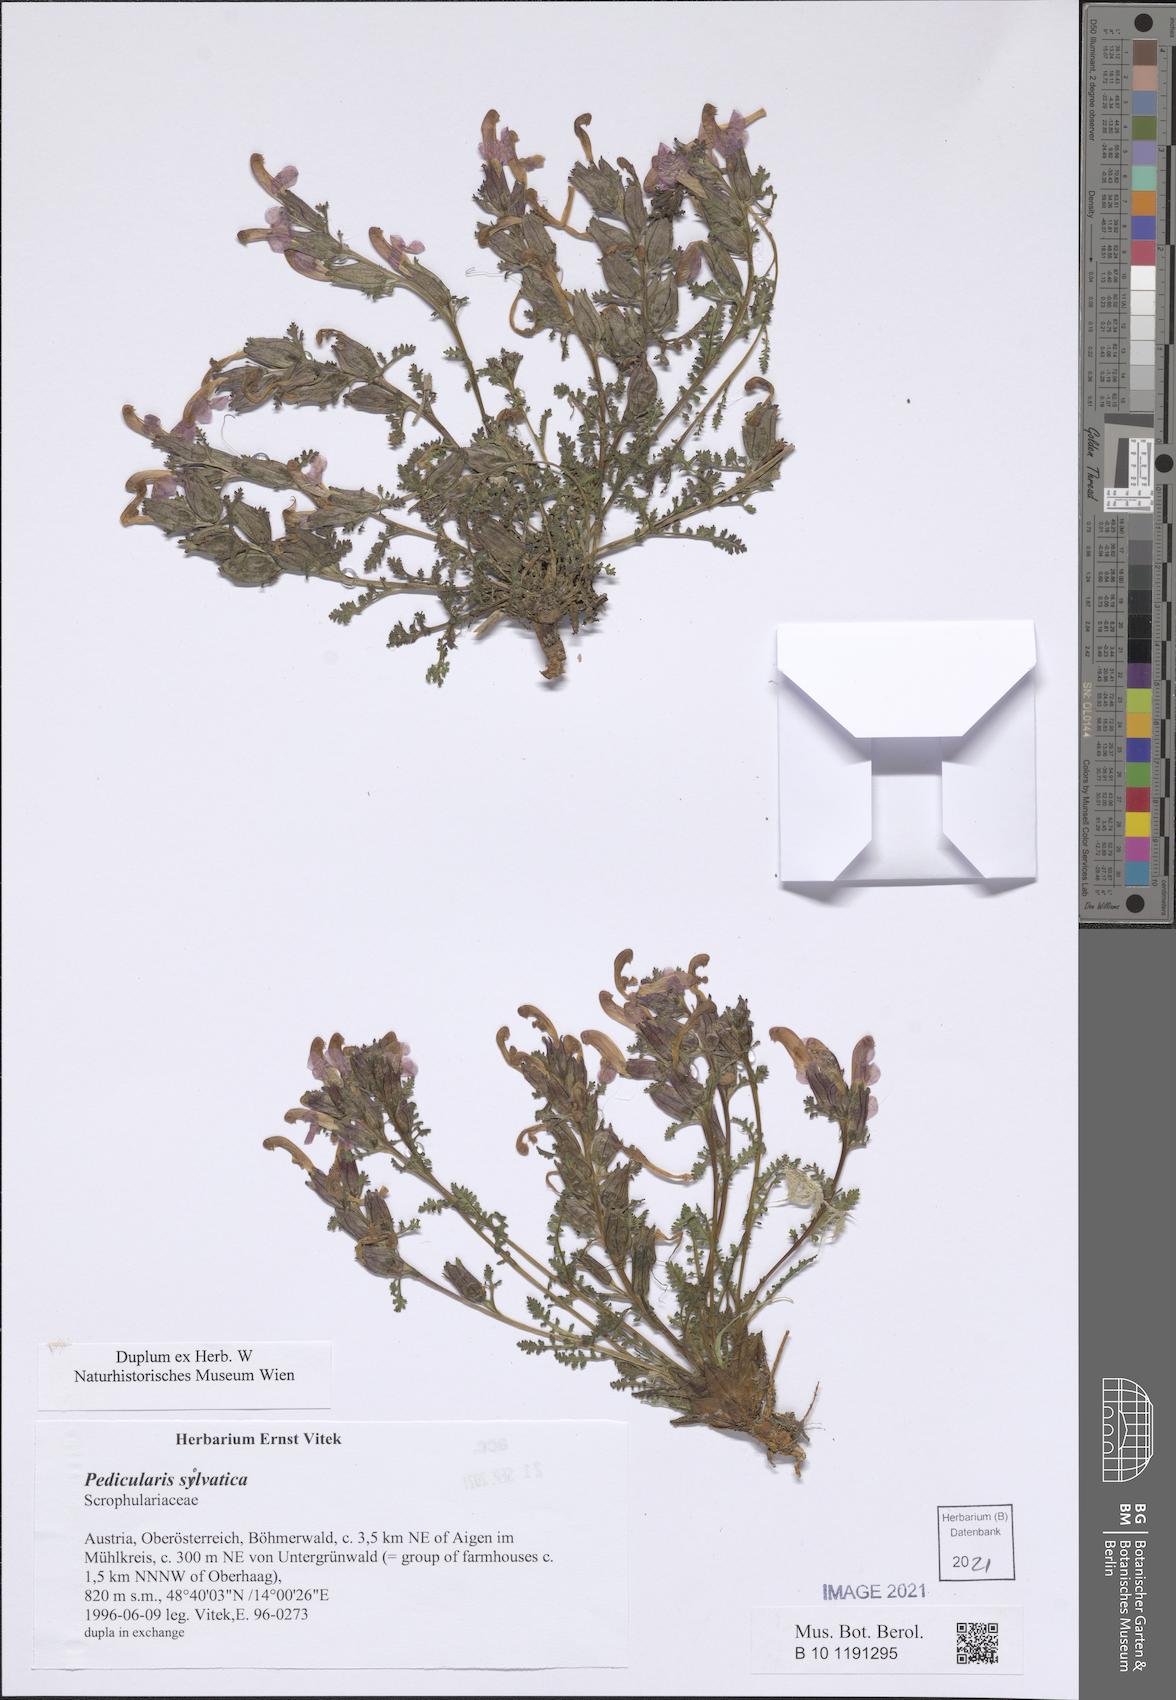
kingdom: Plantae
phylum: Tracheophyta
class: Magnoliopsida
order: Lamiales
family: Orobanchaceae
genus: Pedicularis
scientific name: Pedicularis sylvatica
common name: Lousewort
